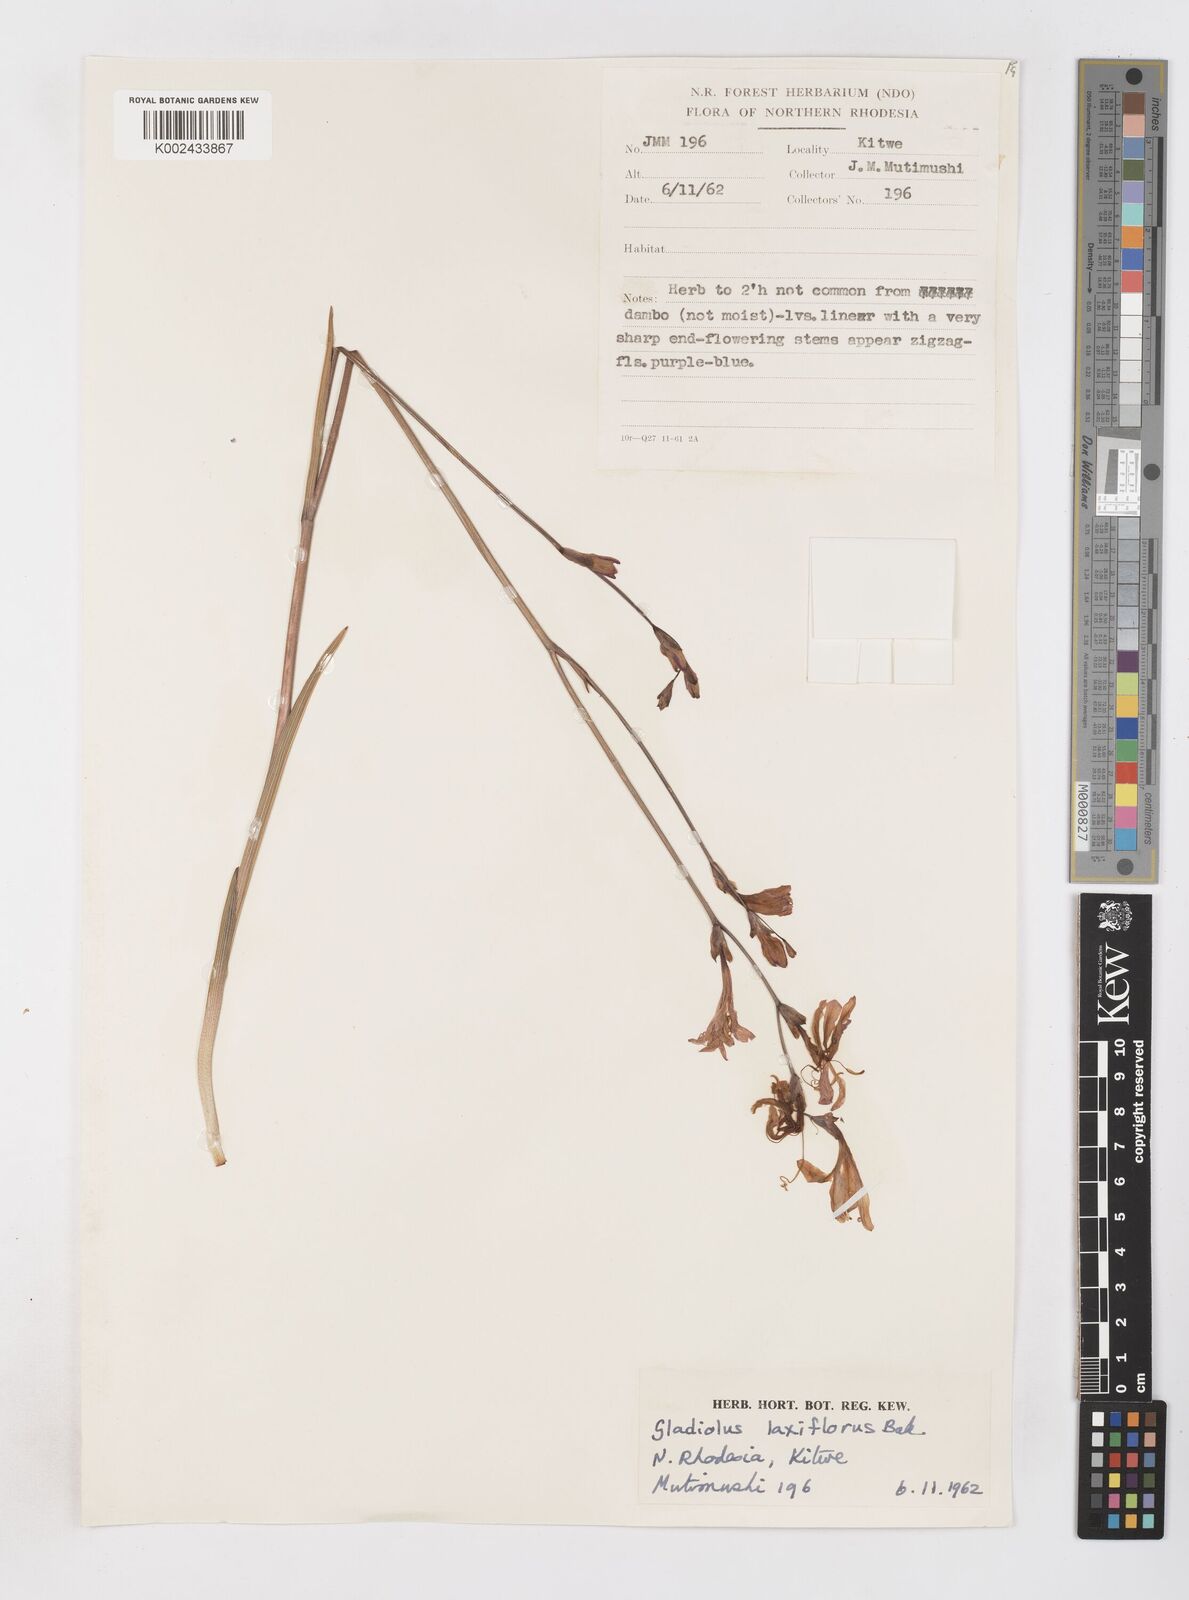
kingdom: Plantae
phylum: Tracheophyta
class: Liliopsida
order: Asparagales
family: Iridaceae
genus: Gladiolus
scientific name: Gladiolus laxiflorus
